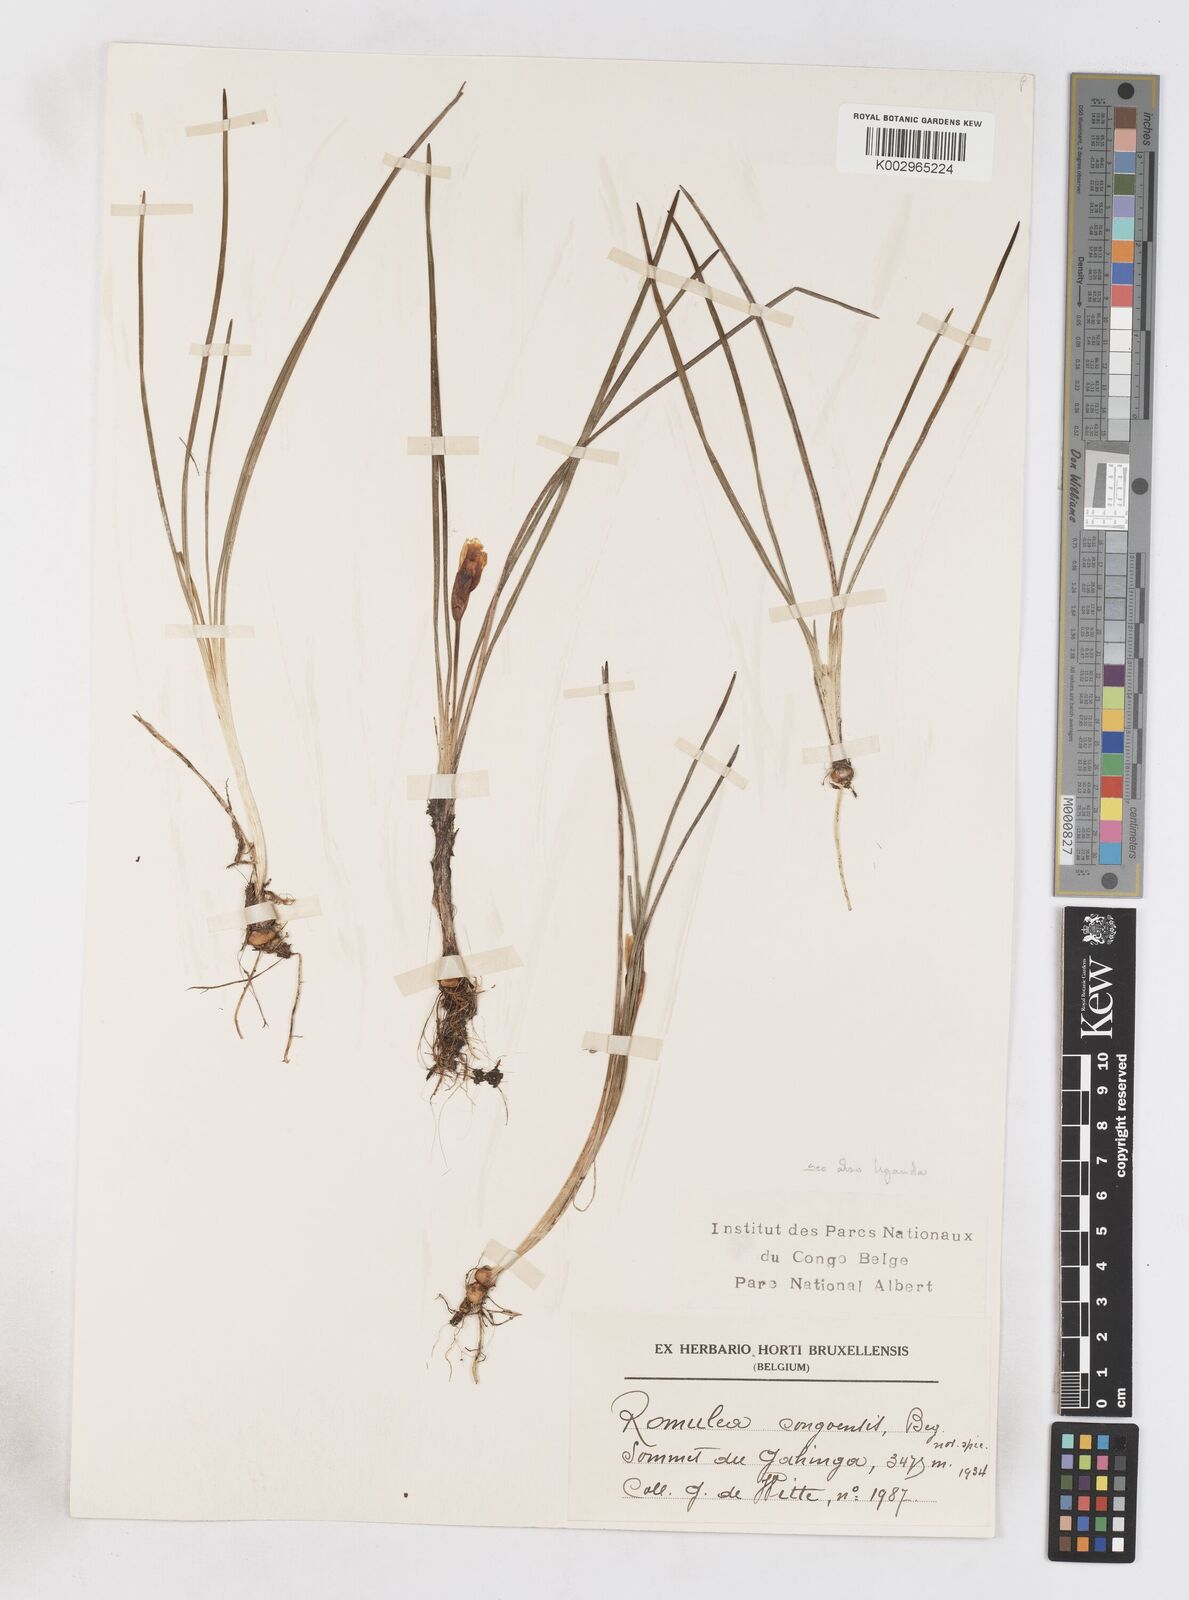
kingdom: Plantae
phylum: Tracheophyta
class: Liliopsida
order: Asparagales
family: Iridaceae
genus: Romulea
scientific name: Romulea congoensis
